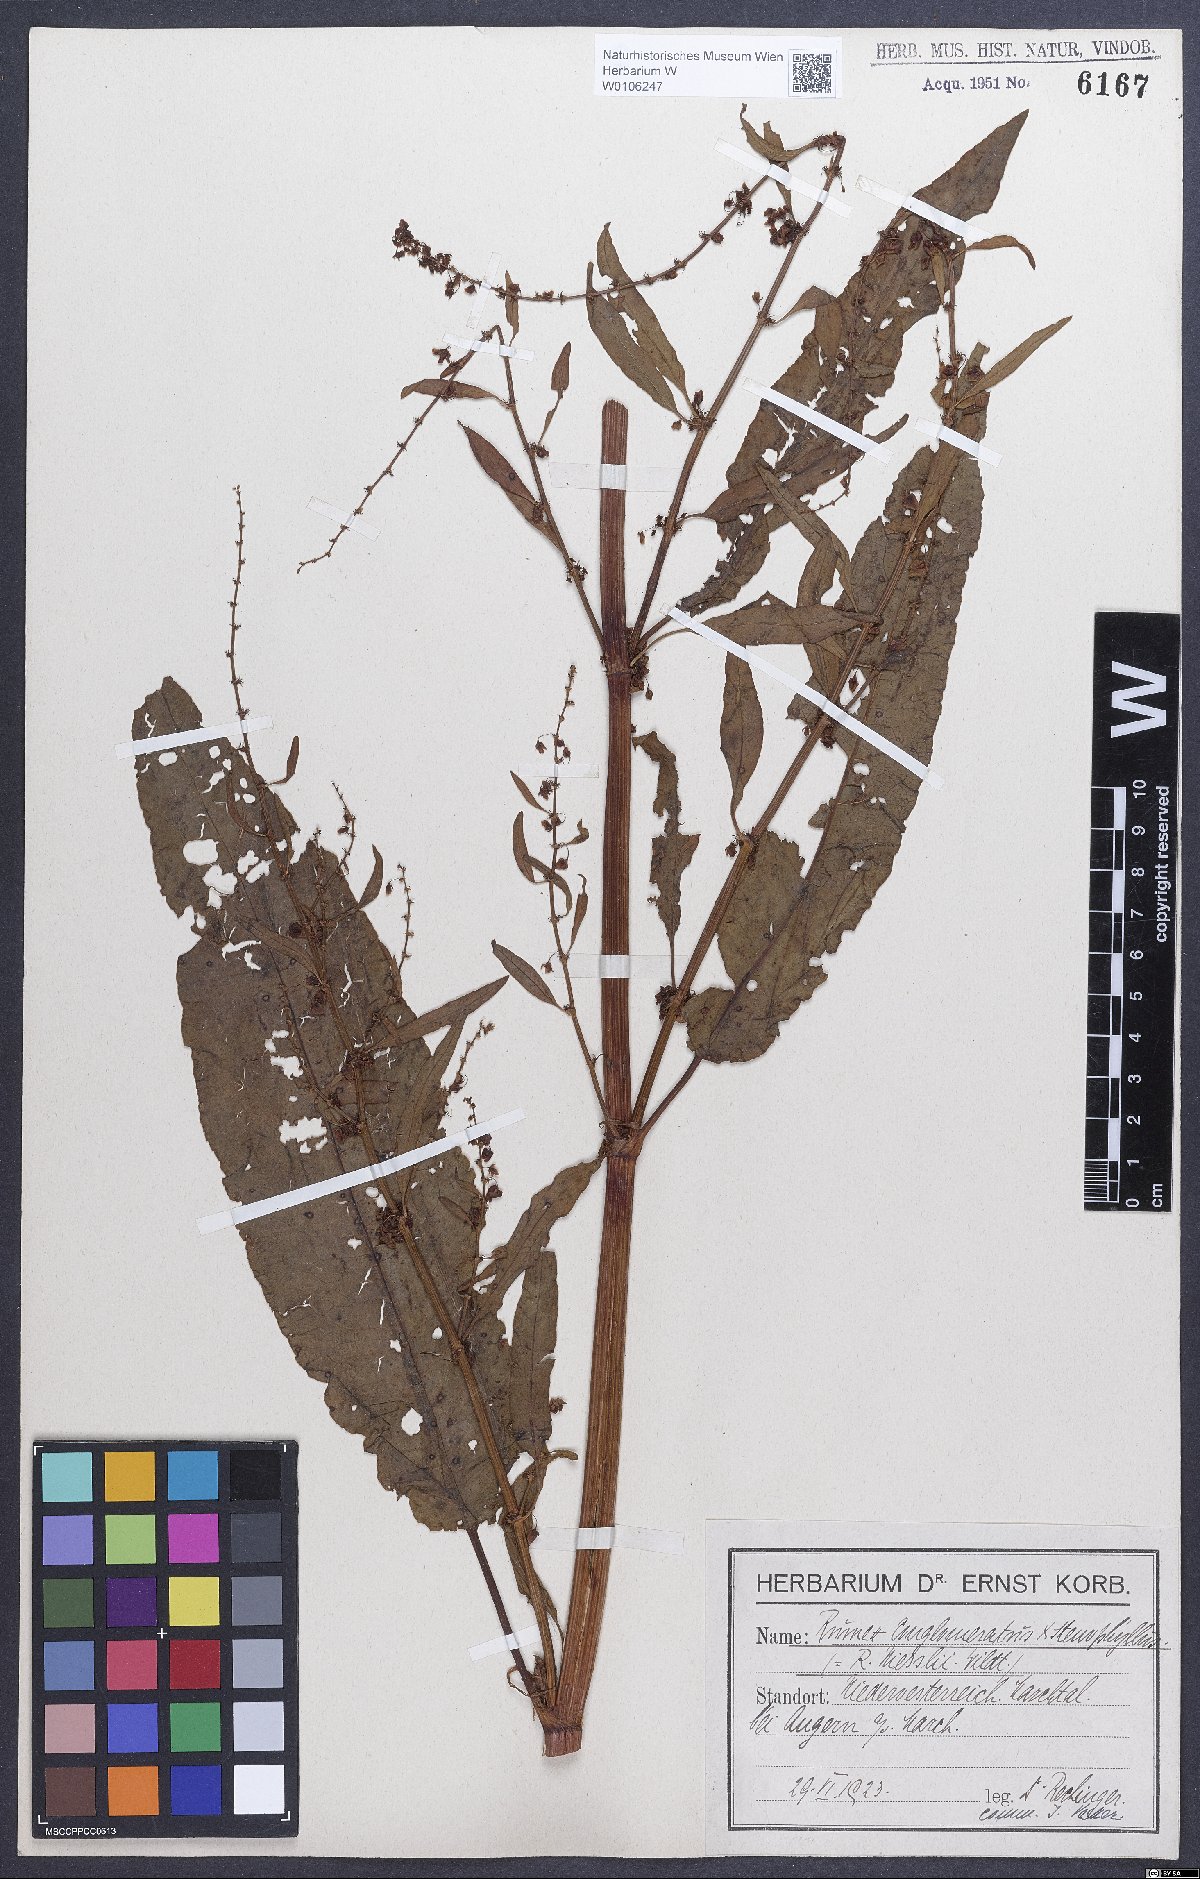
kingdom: Plantae
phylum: Tracheophyta
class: Magnoliopsida
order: Caryophyllales
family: Polygonaceae
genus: Rumex
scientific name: Rumex
